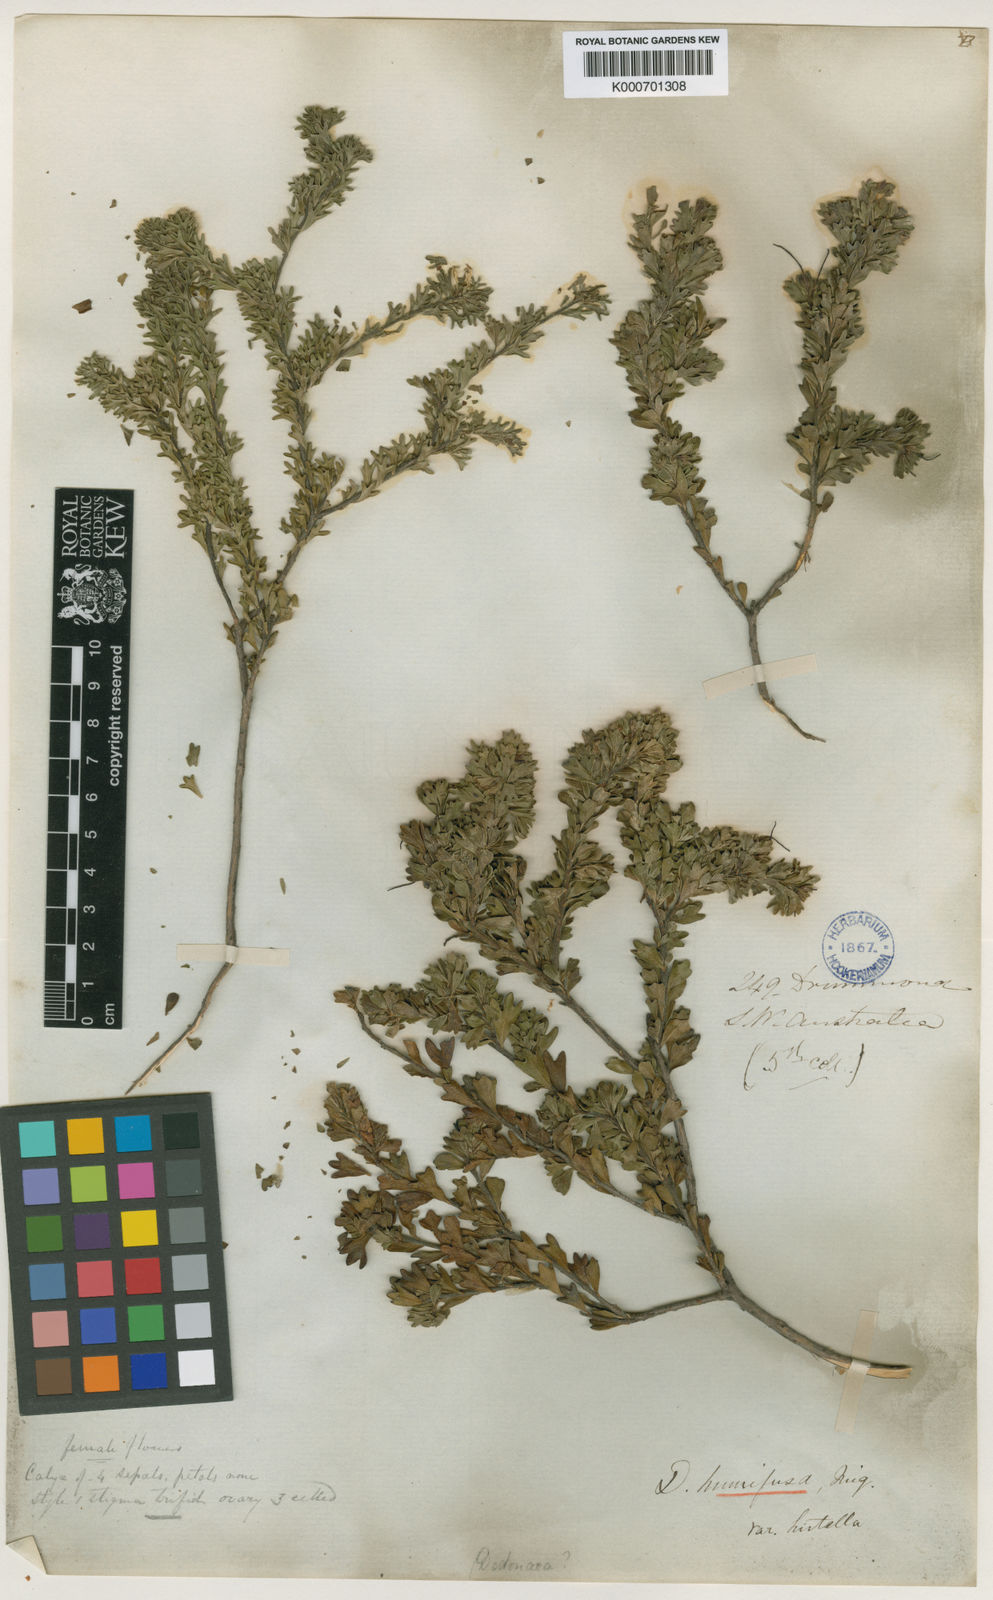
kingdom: Plantae
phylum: Tracheophyta
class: Magnoliopsida
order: Sapindales
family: Sapindaceae
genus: Dodonaea
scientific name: Dodonaea trifida
